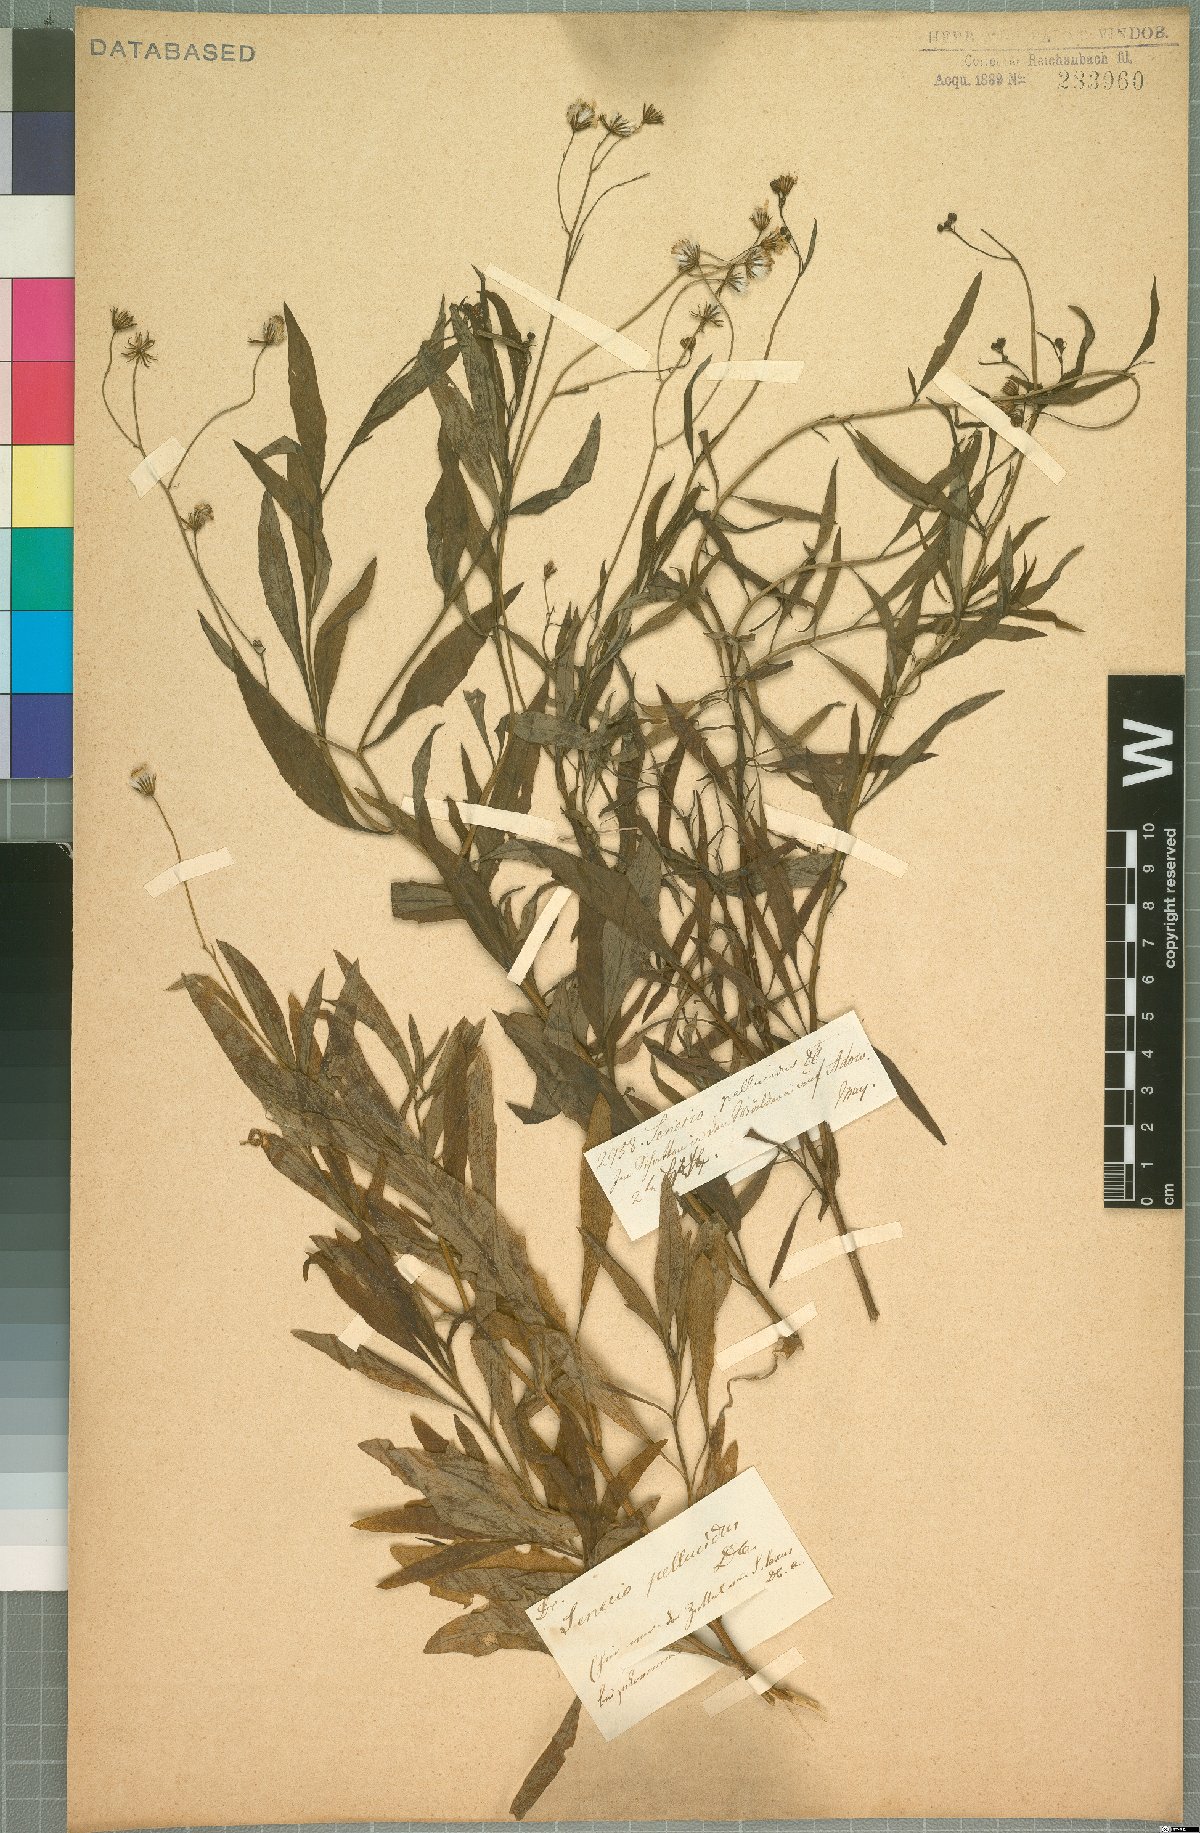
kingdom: Plantae
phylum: Tracheophyta
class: Magnoliopsida
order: Asterales
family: Asteraceae
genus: Senecio
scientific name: Senecio pellucidus
